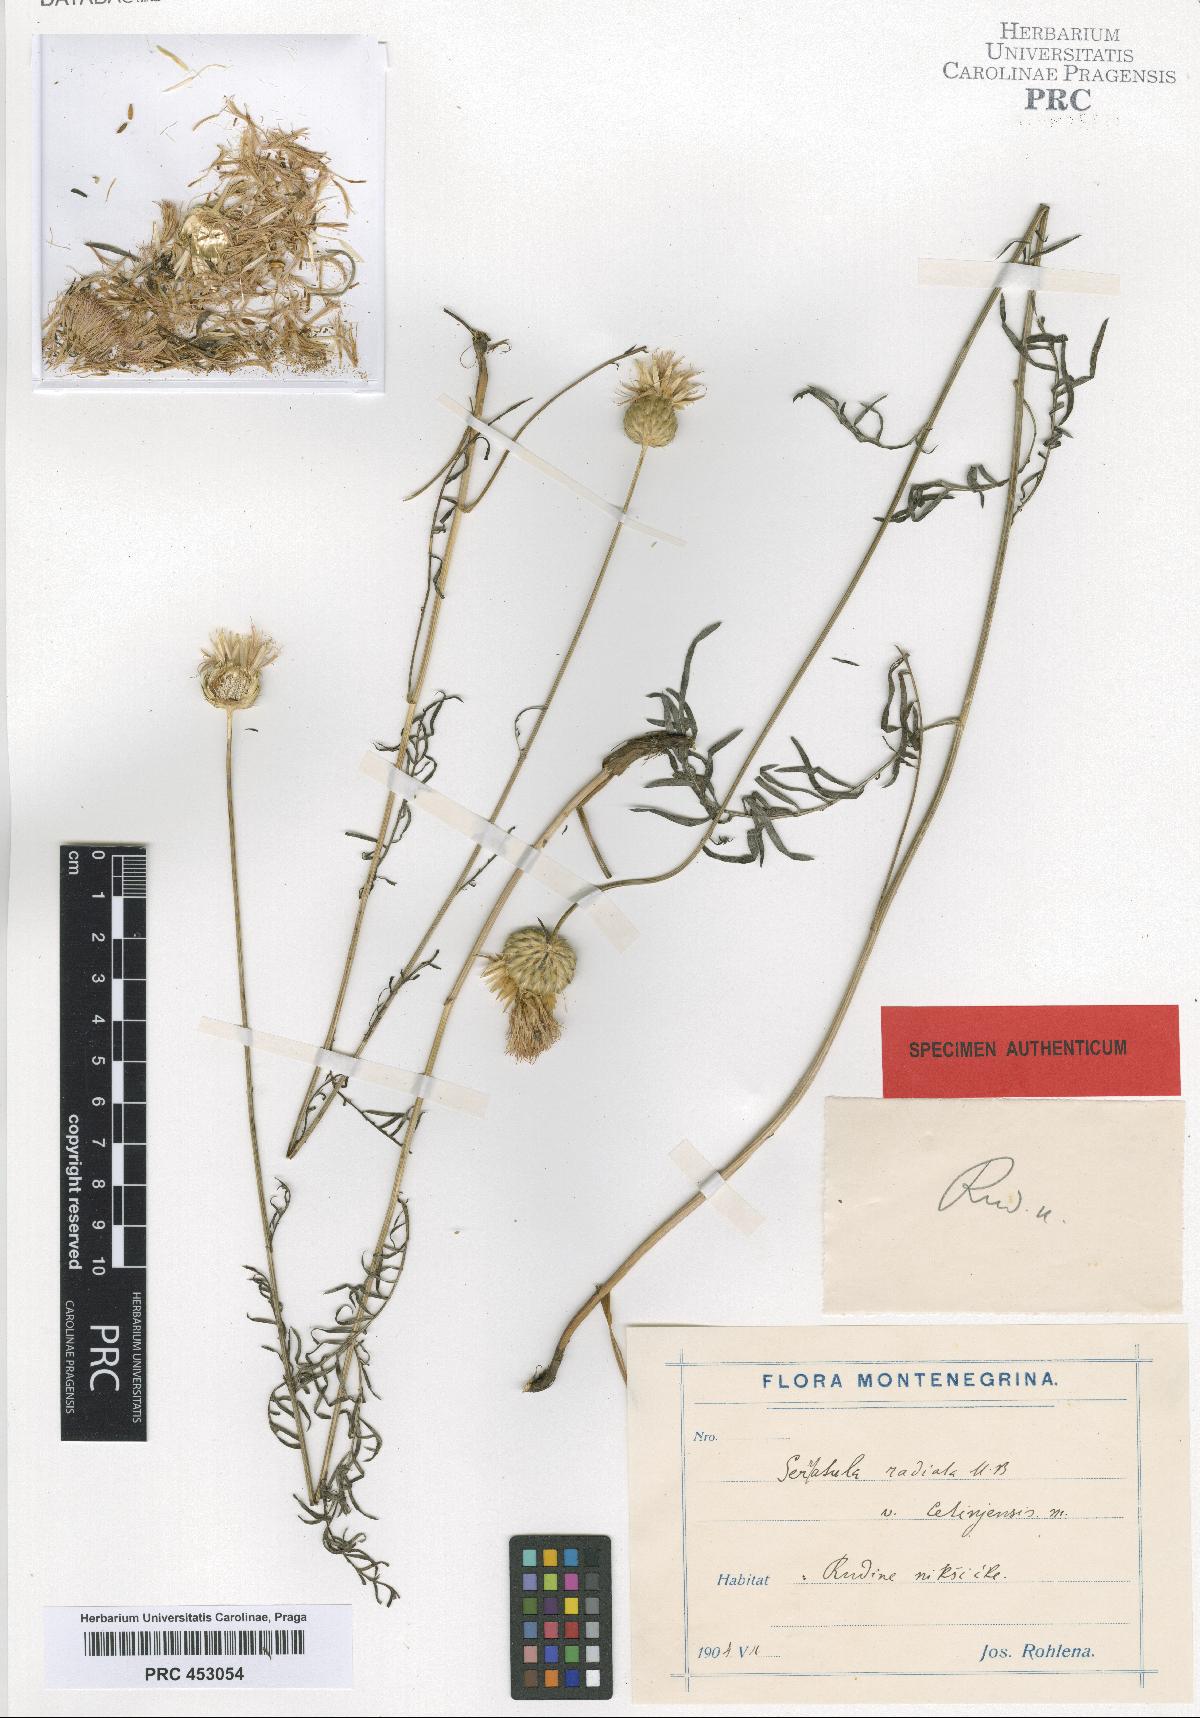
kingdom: Plantae
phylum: Tracheophyta
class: Magnoliopsida
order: Asterales
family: Asteraceae
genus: Klasea
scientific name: Klasea radiata
